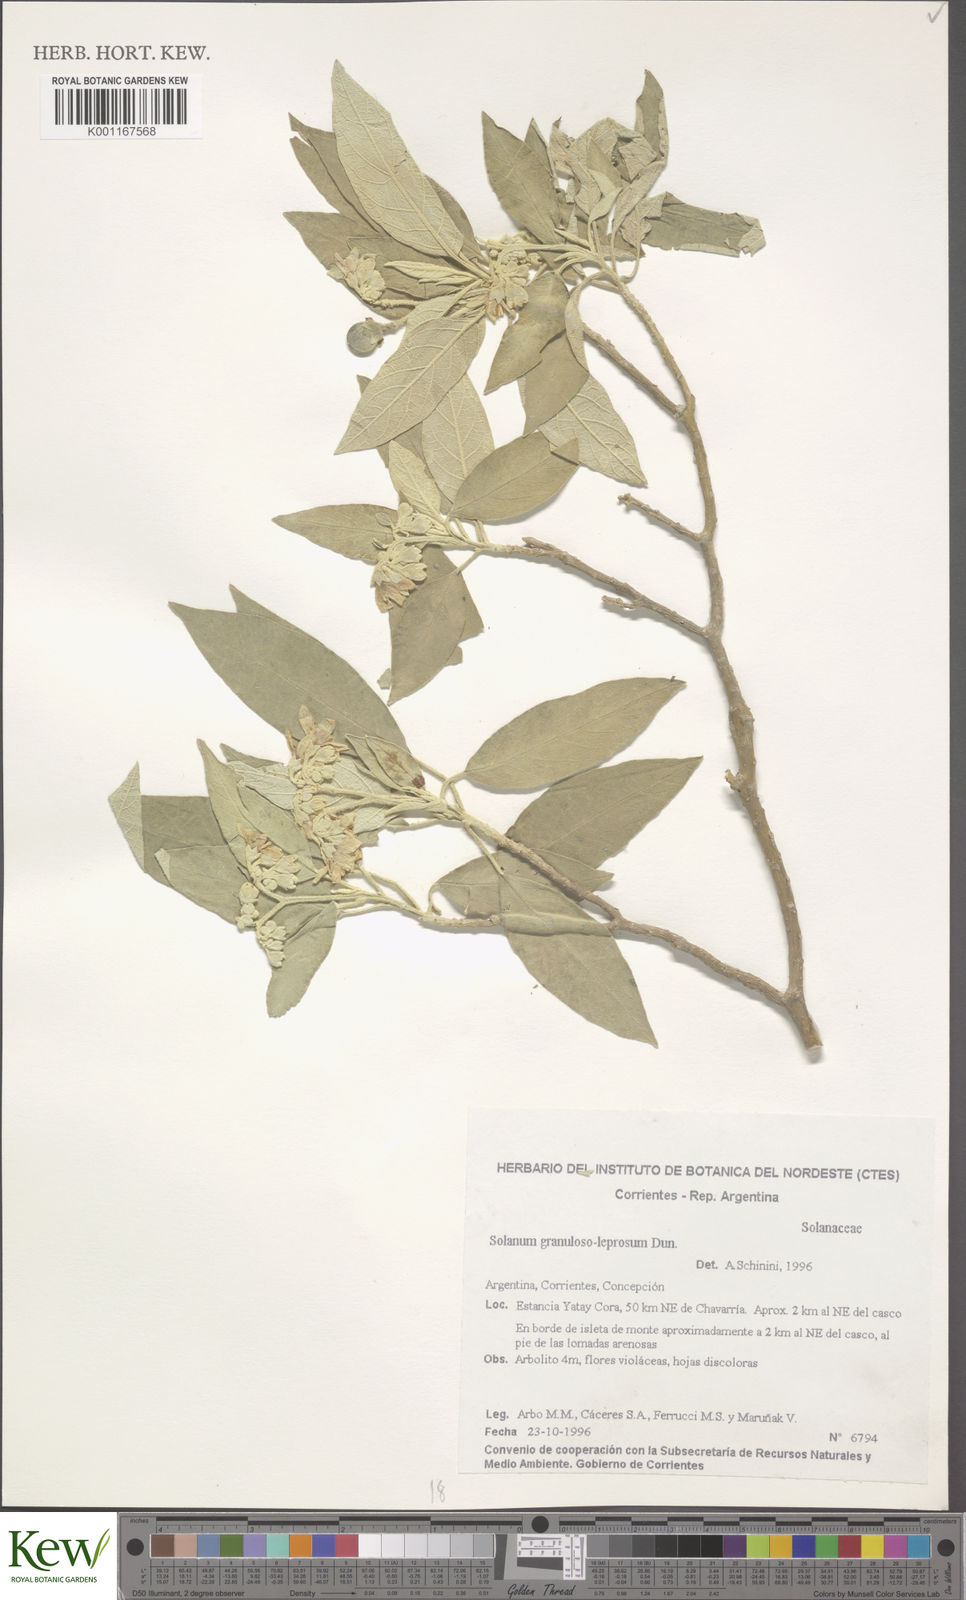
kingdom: Plantae
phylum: Tracheophyta
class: Magnoliopsida
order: Solanales
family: Solanaceae
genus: Solanum
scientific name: Solanum granulosoleprosum
